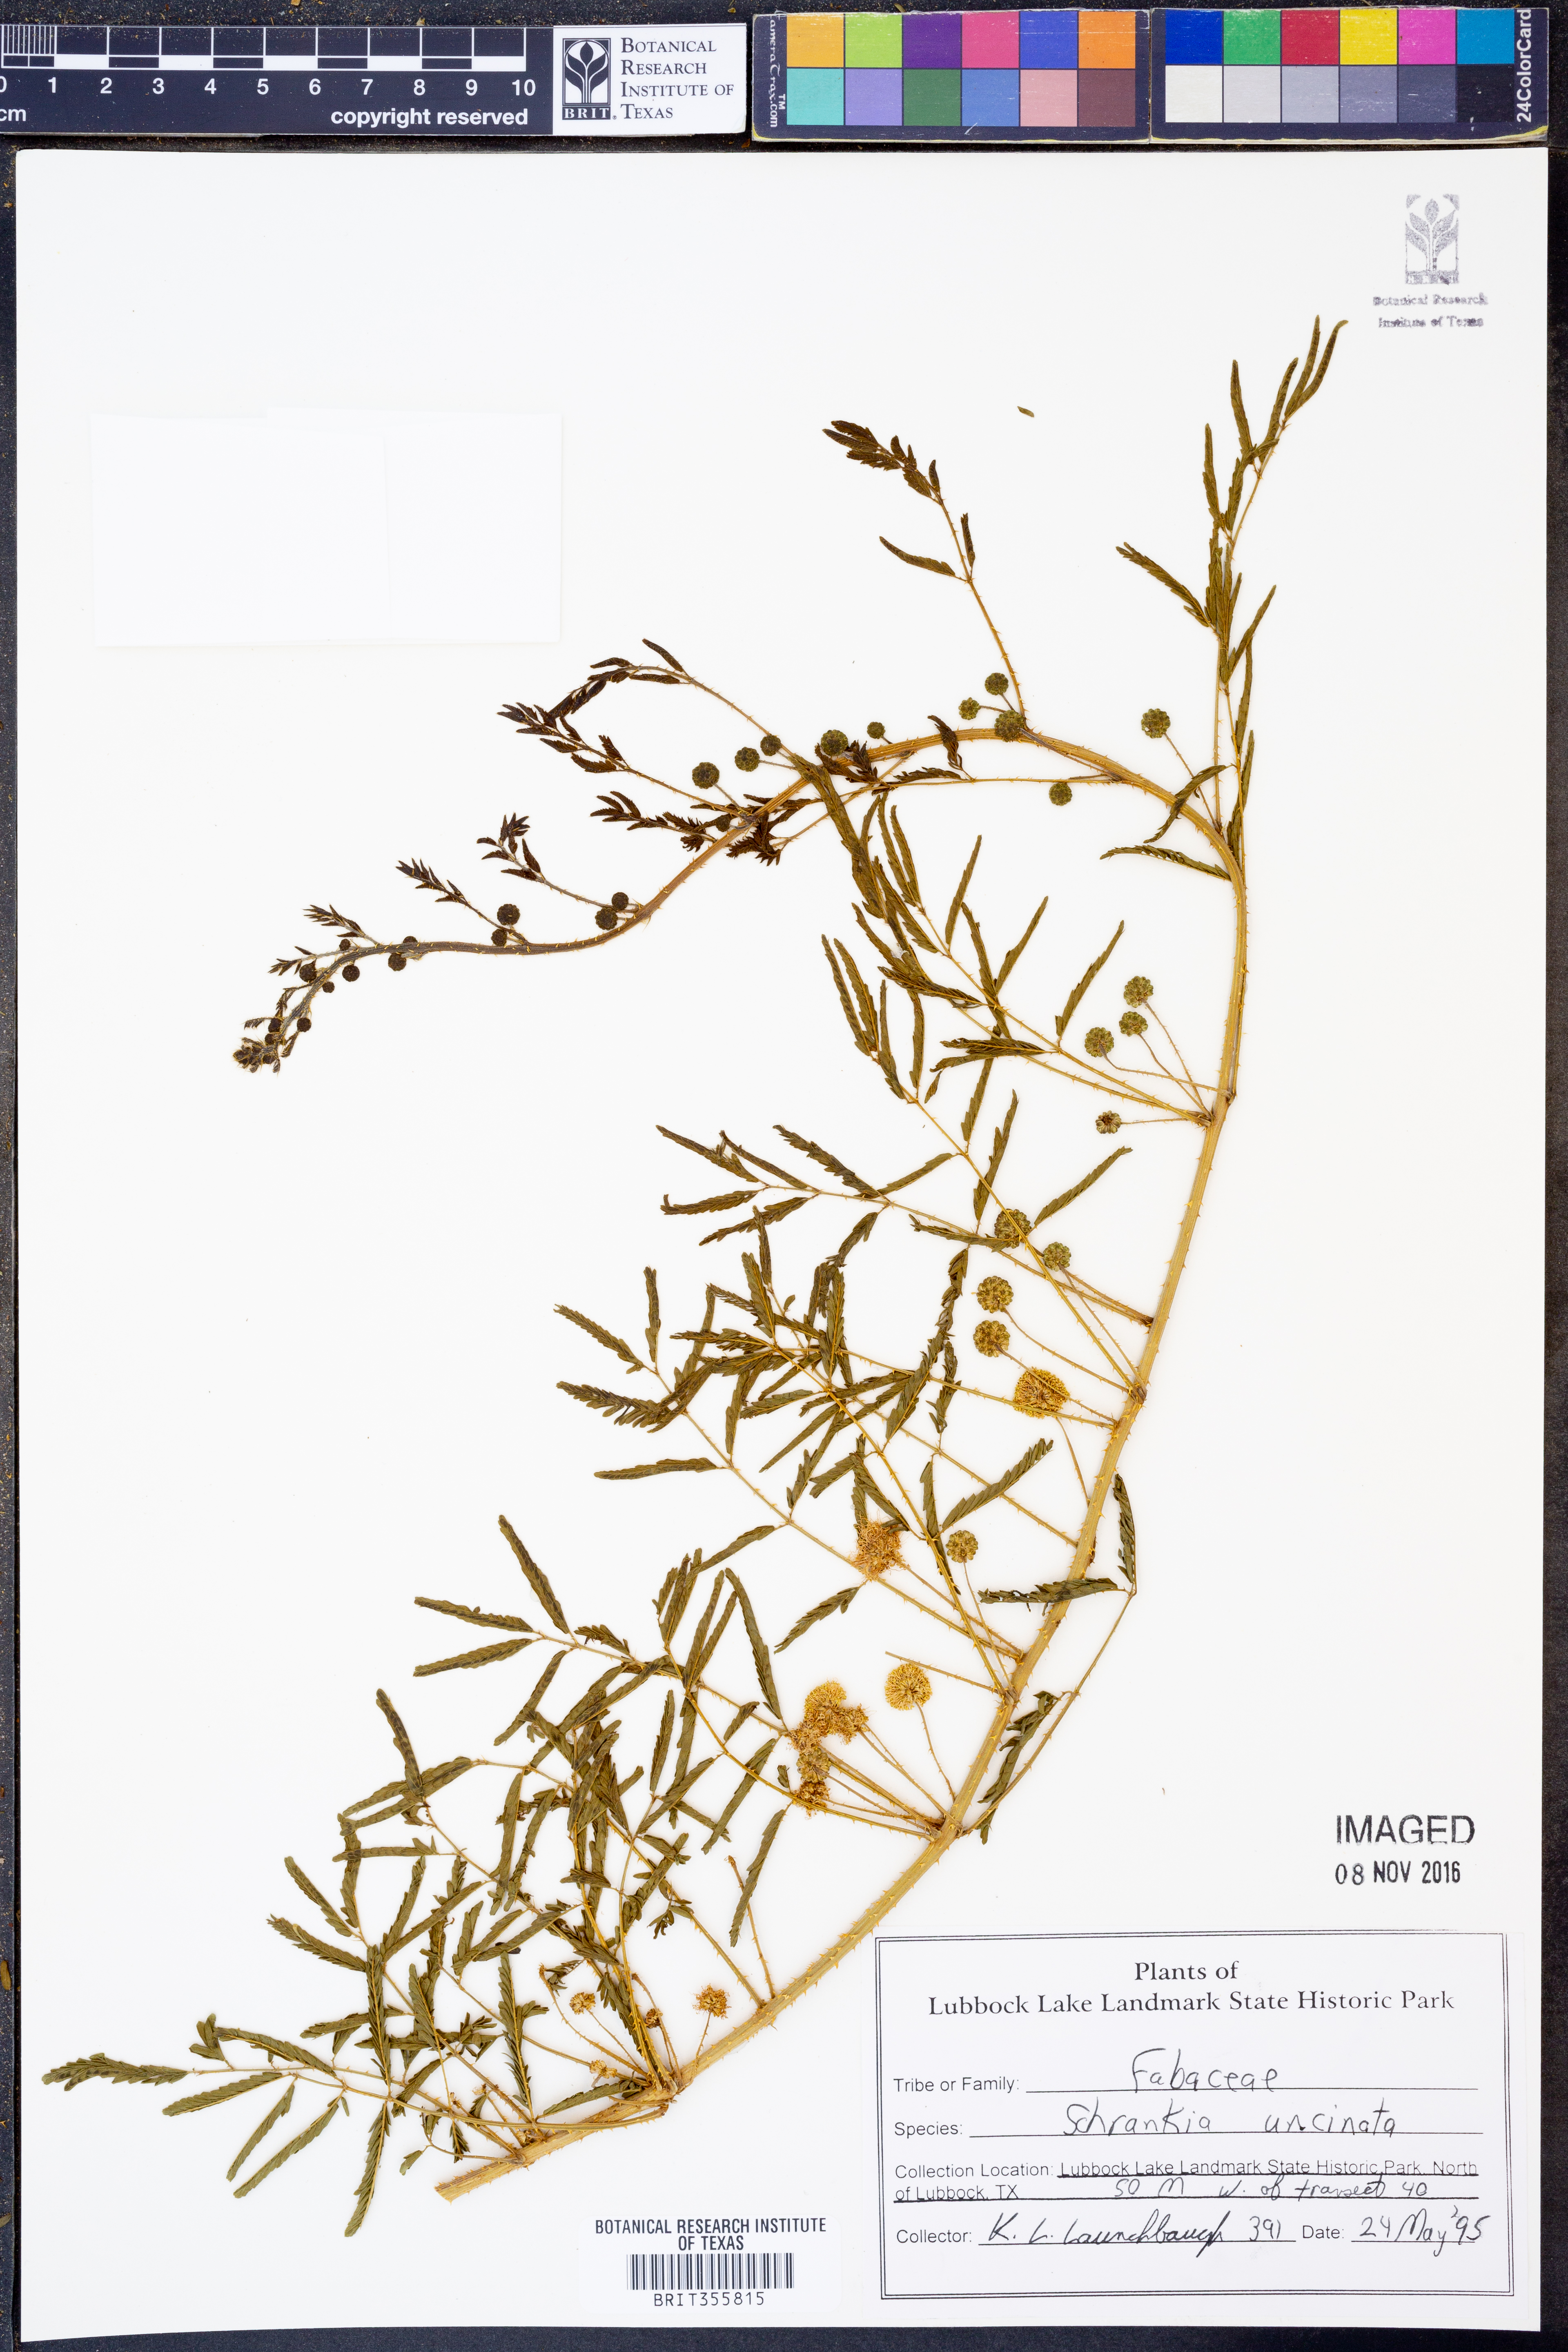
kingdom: Plantae
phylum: Tracheophyta
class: Magnoliopsida
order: Fabales
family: Fabaceae
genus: Mimosa
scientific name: Mimosa quadrivalvis
